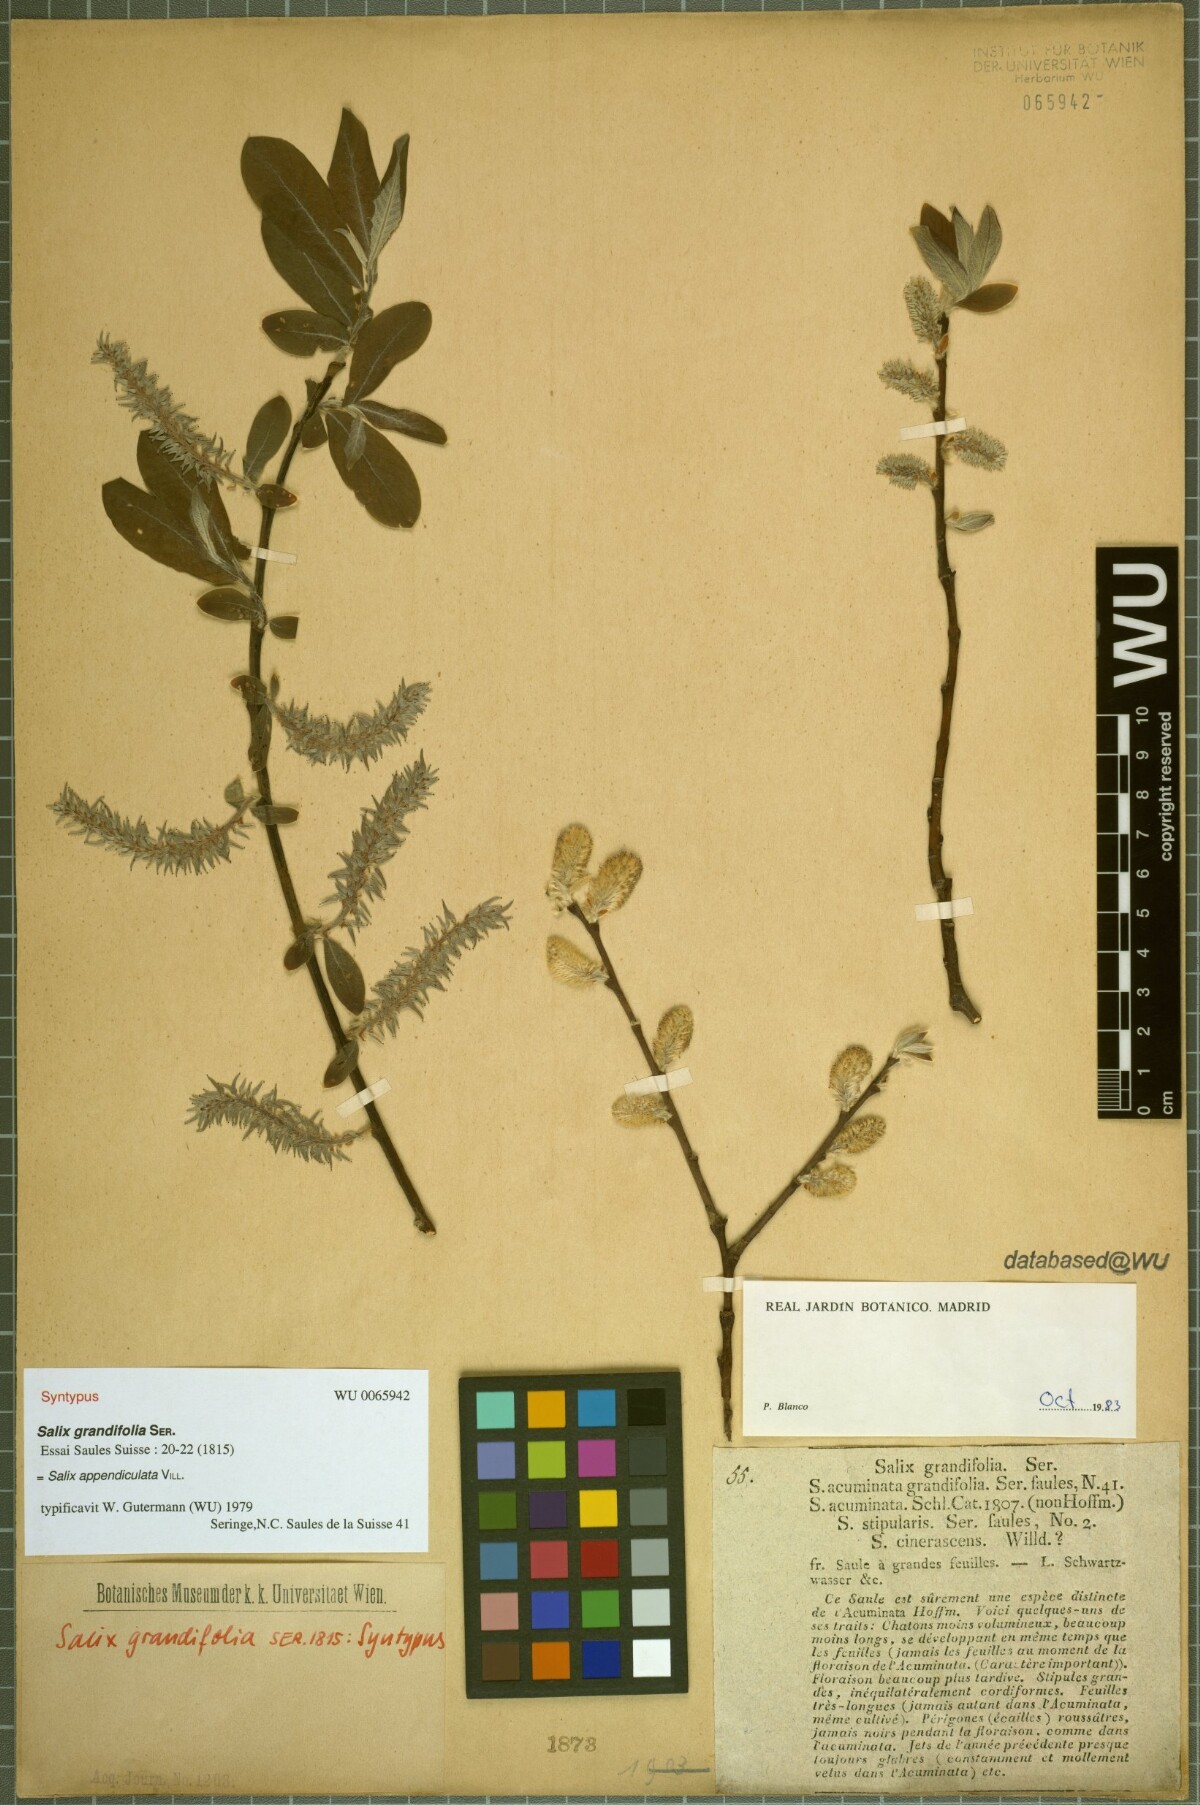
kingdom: Plantae
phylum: Tracheophyta
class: Magnoliopsida
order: Malpighiales
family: Salicaceae
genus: Salix
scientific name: Salix appendiculata
